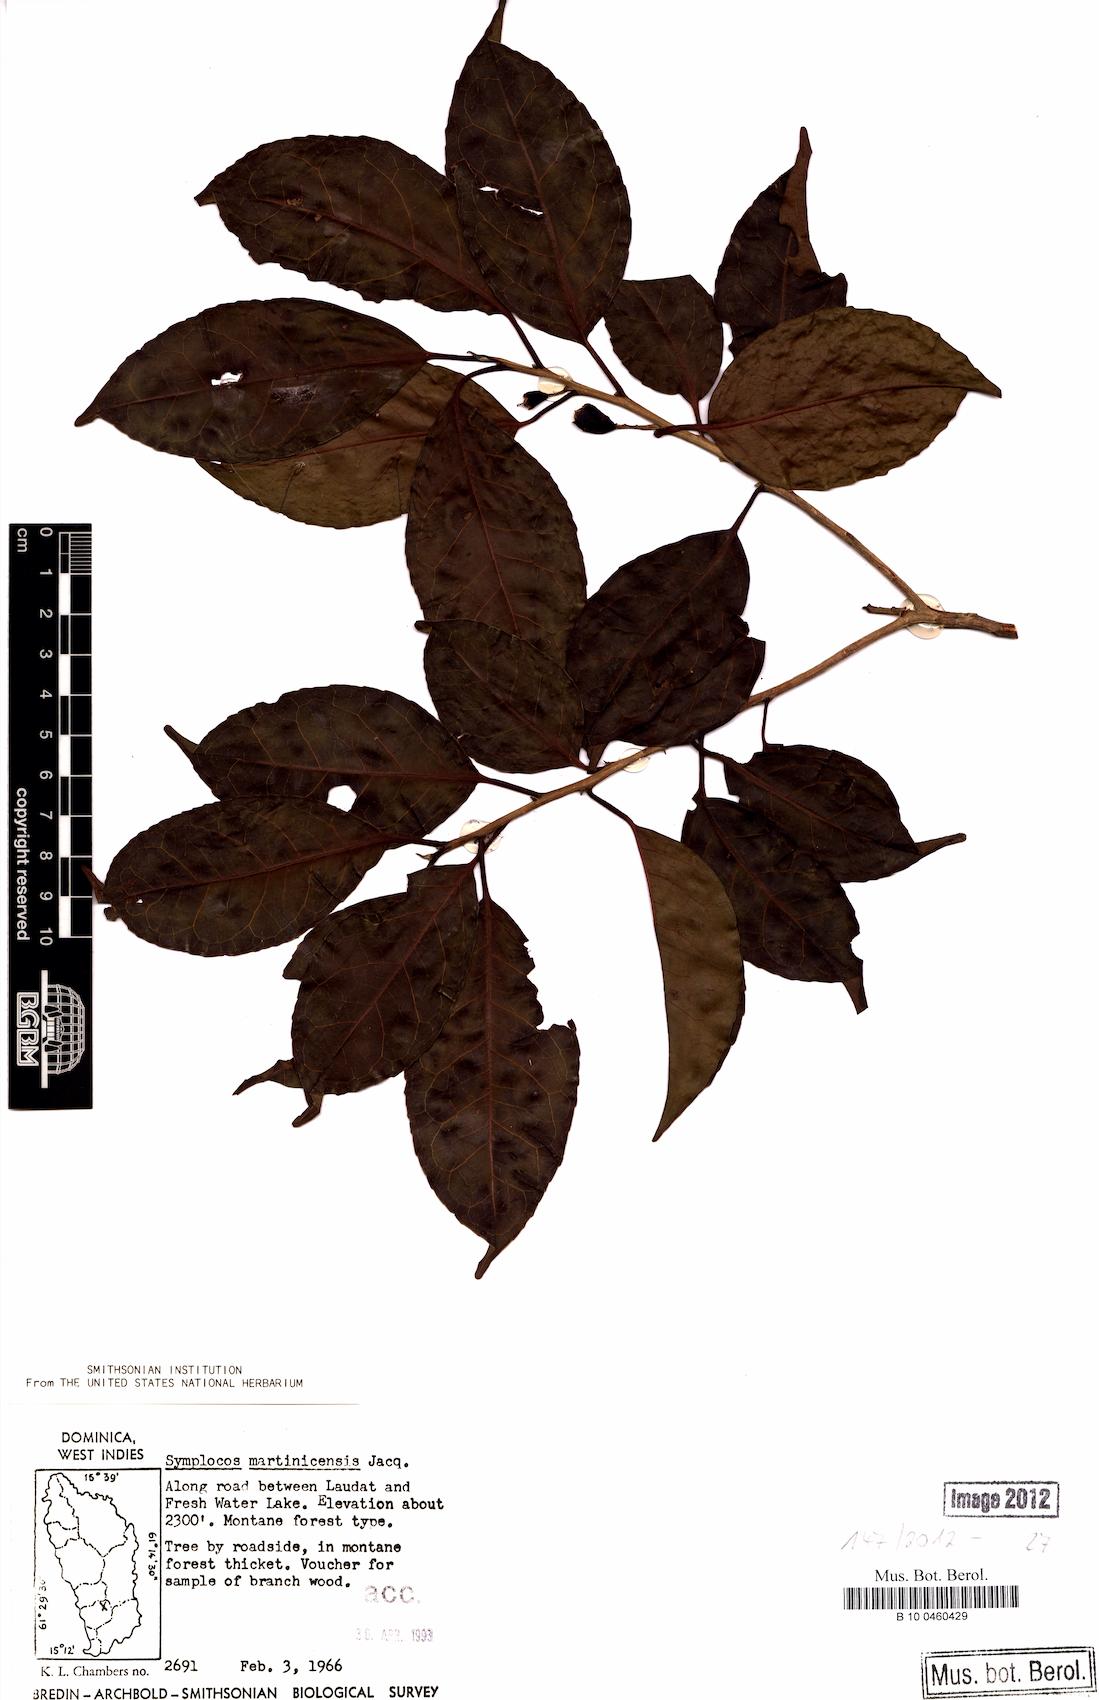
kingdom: Plantae
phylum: Tracheophyta
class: Magnoliopsida
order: Ericales
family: Symplocaceae
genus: Symplocos
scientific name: Symplocos martinicensis
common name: Blueberry
